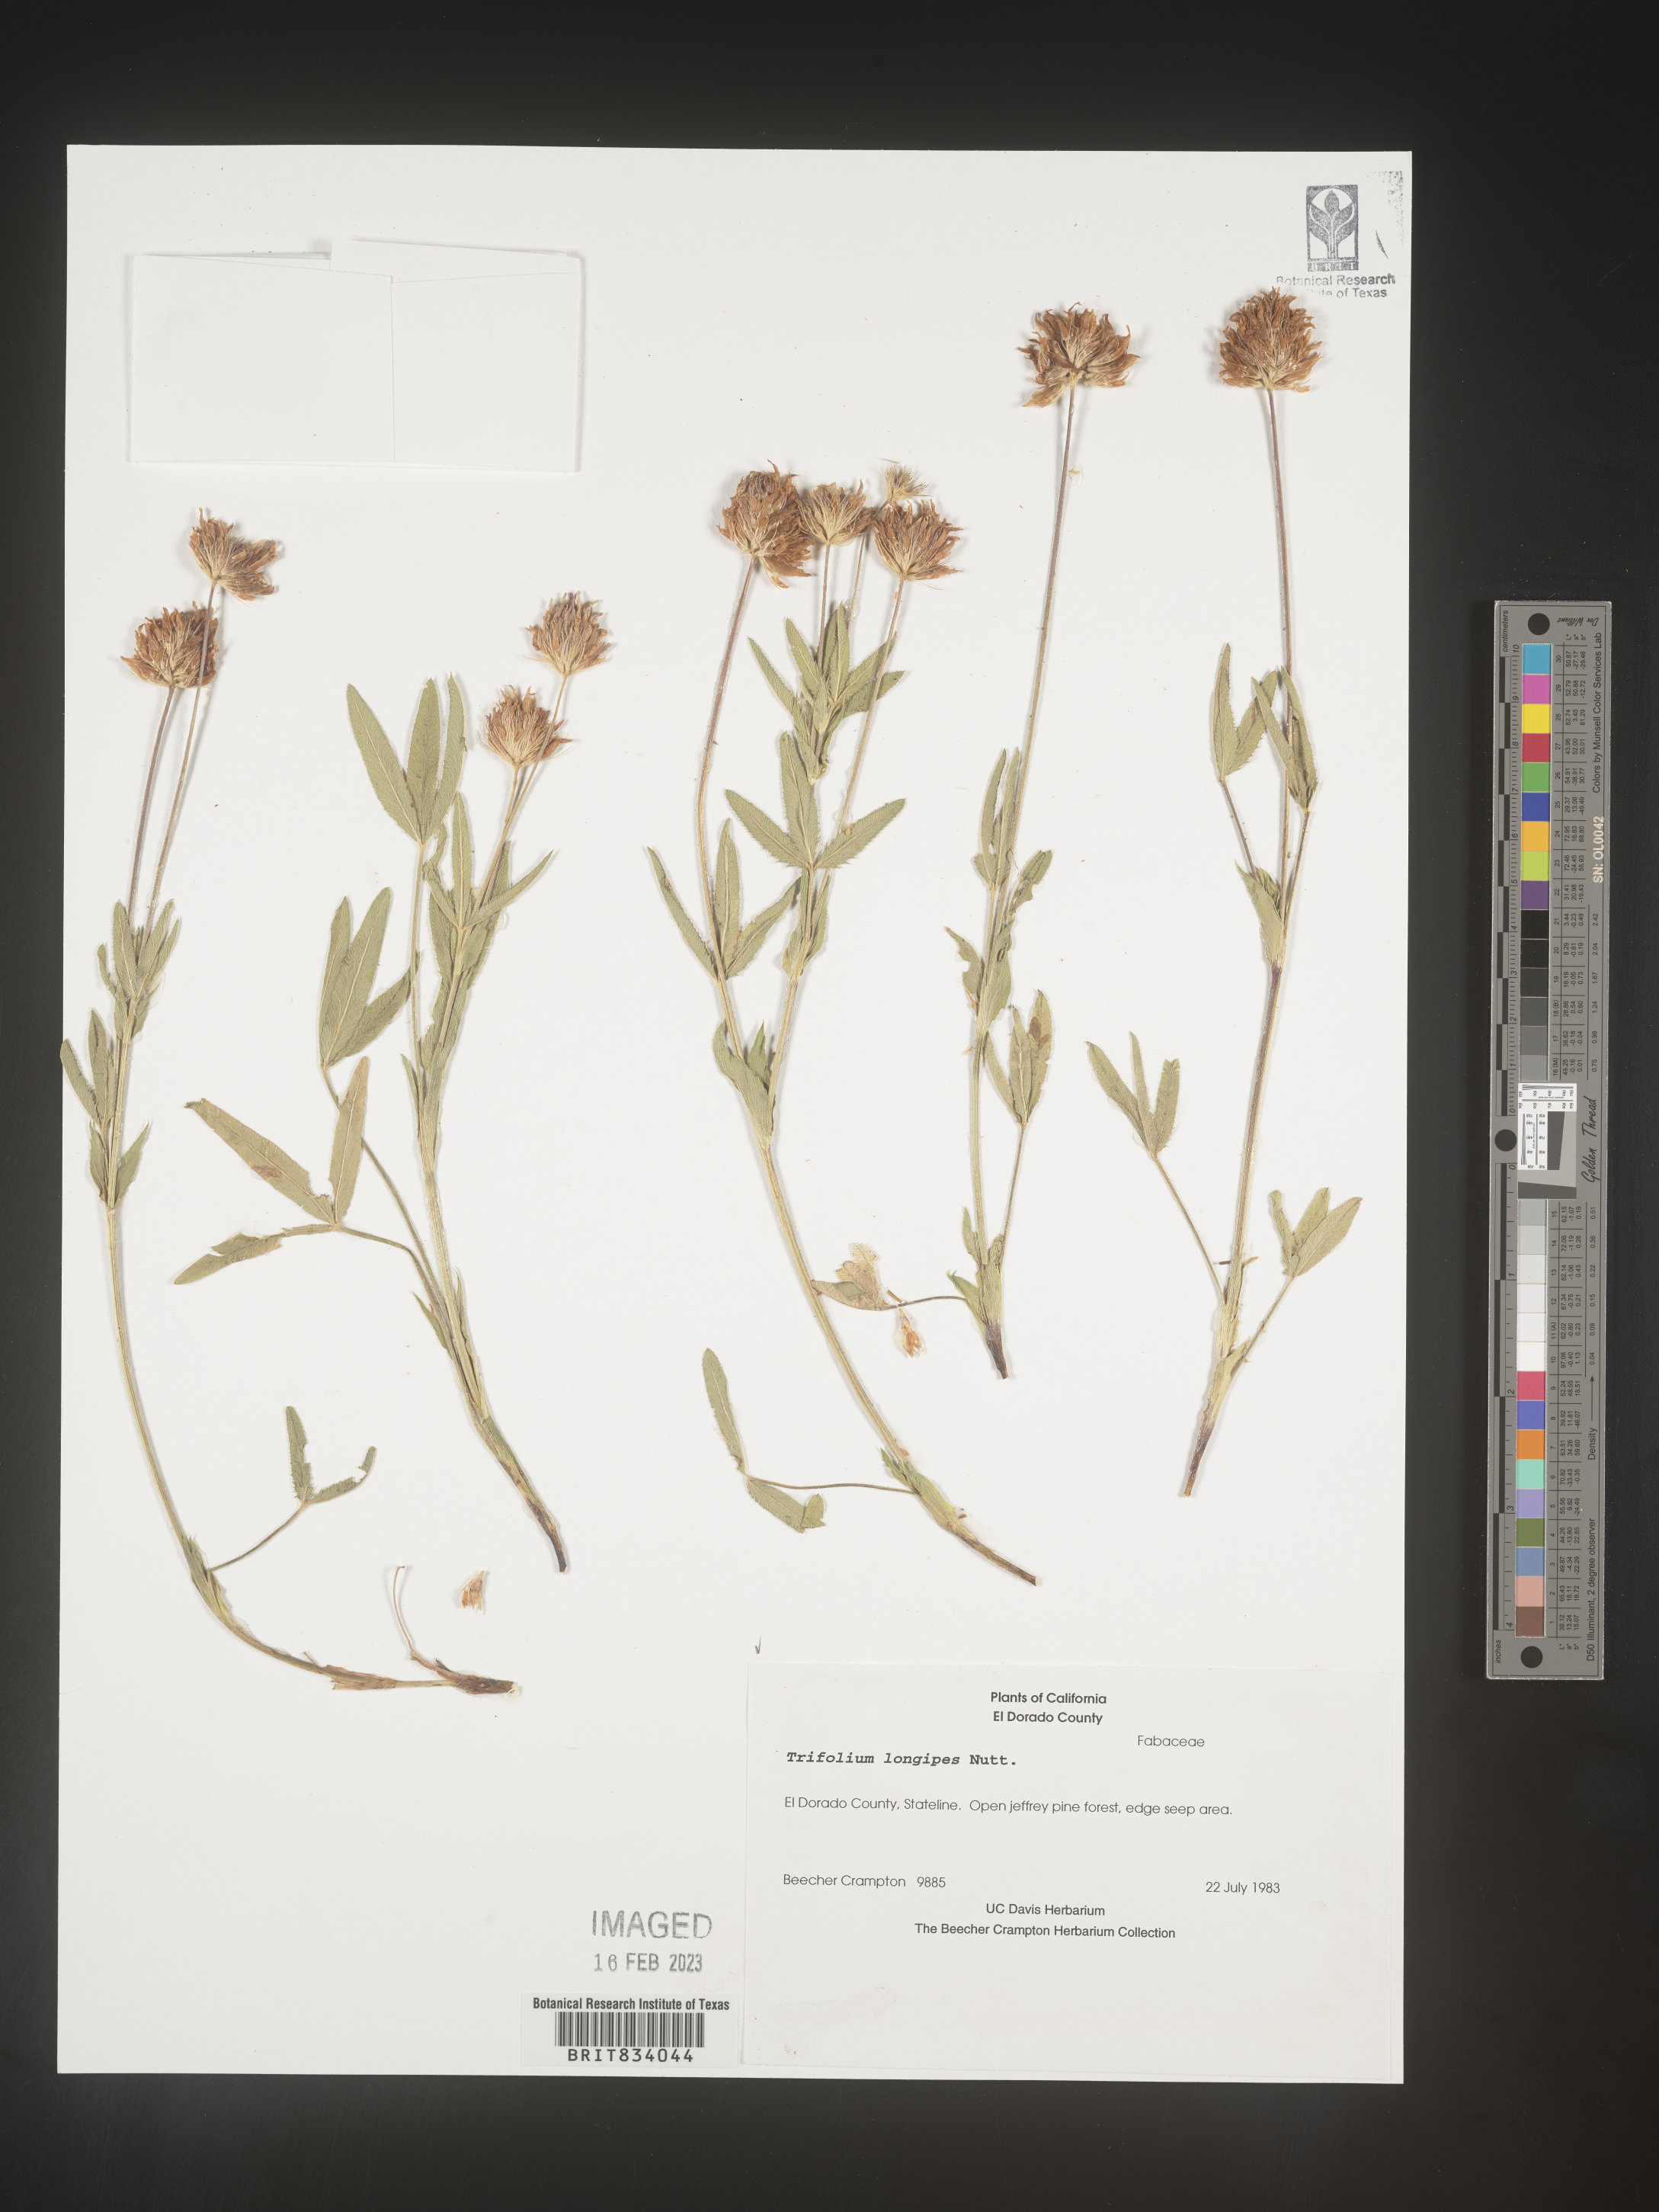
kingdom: Plantae
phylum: Tracheophyta
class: Magnoliopsida
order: Fabales
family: Fabaceae
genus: Trifolium
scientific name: Trifolium
